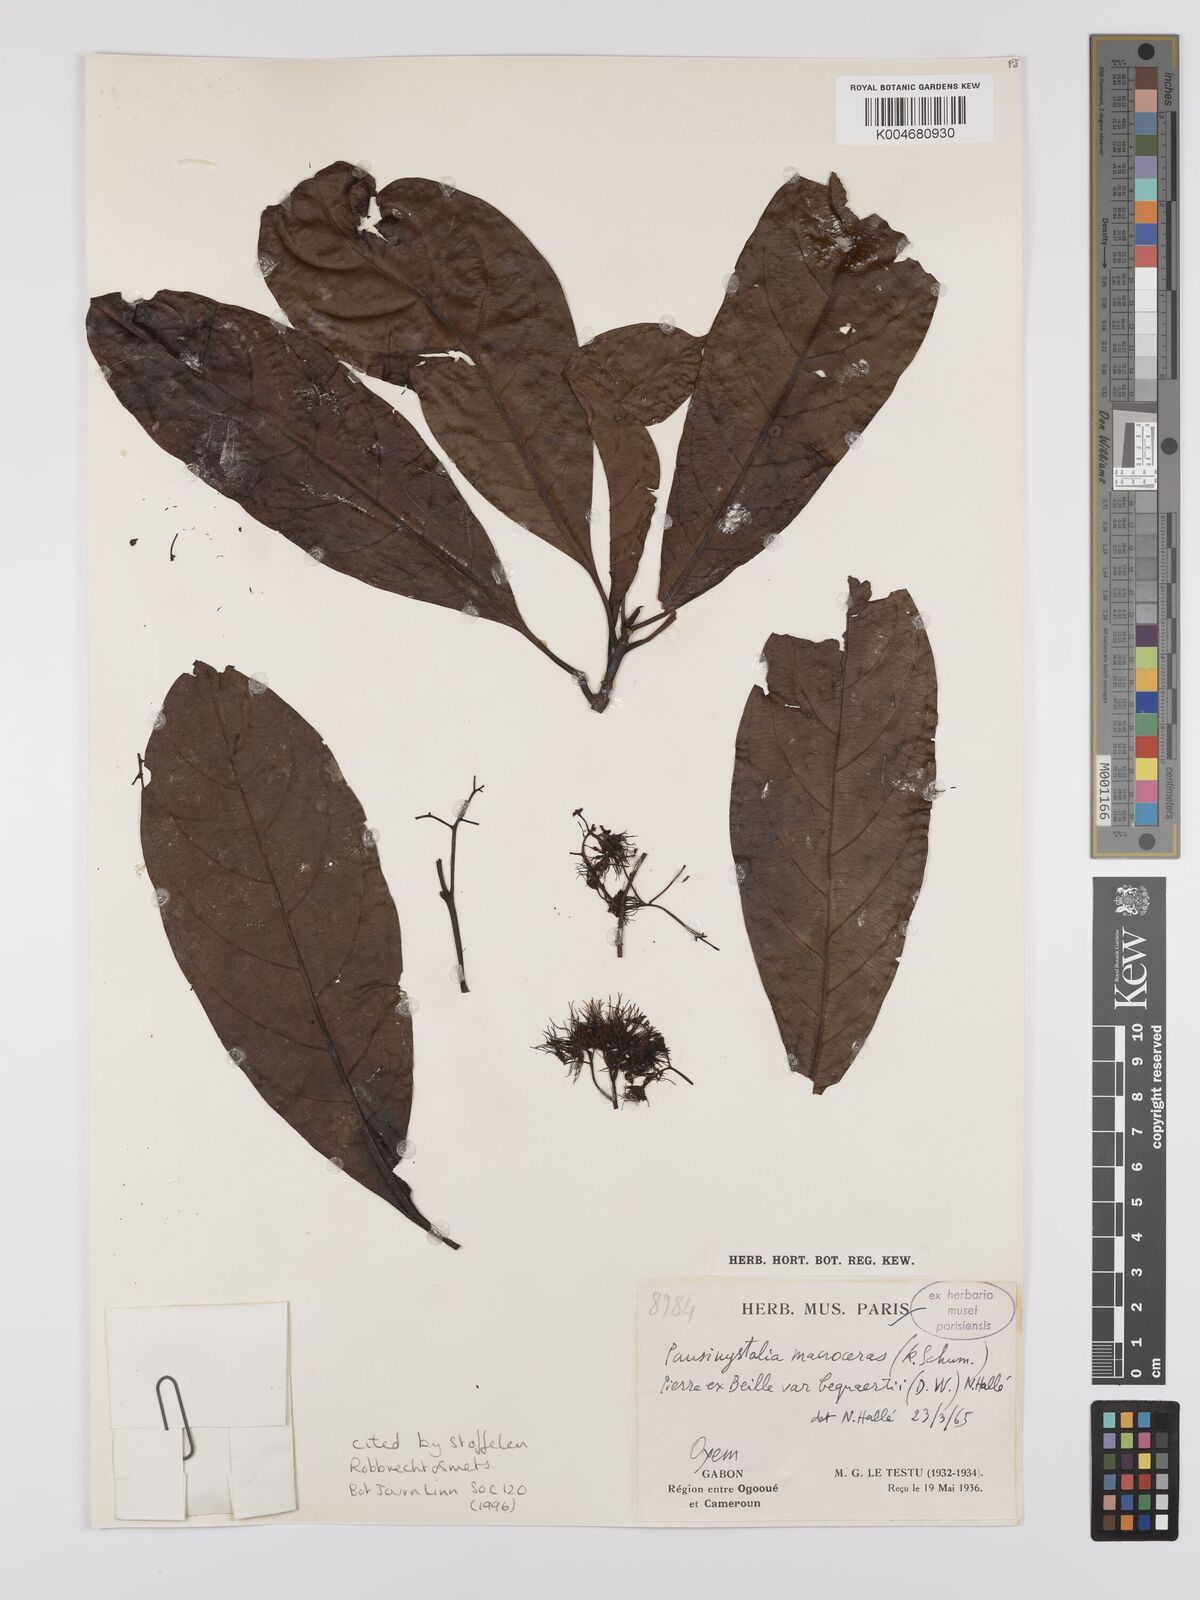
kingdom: Plantae
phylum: Tracheophyta
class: Magnoliopsida
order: Gentianales
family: Rubiaceae
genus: Corynanthe
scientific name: Corynanthe macroceras
